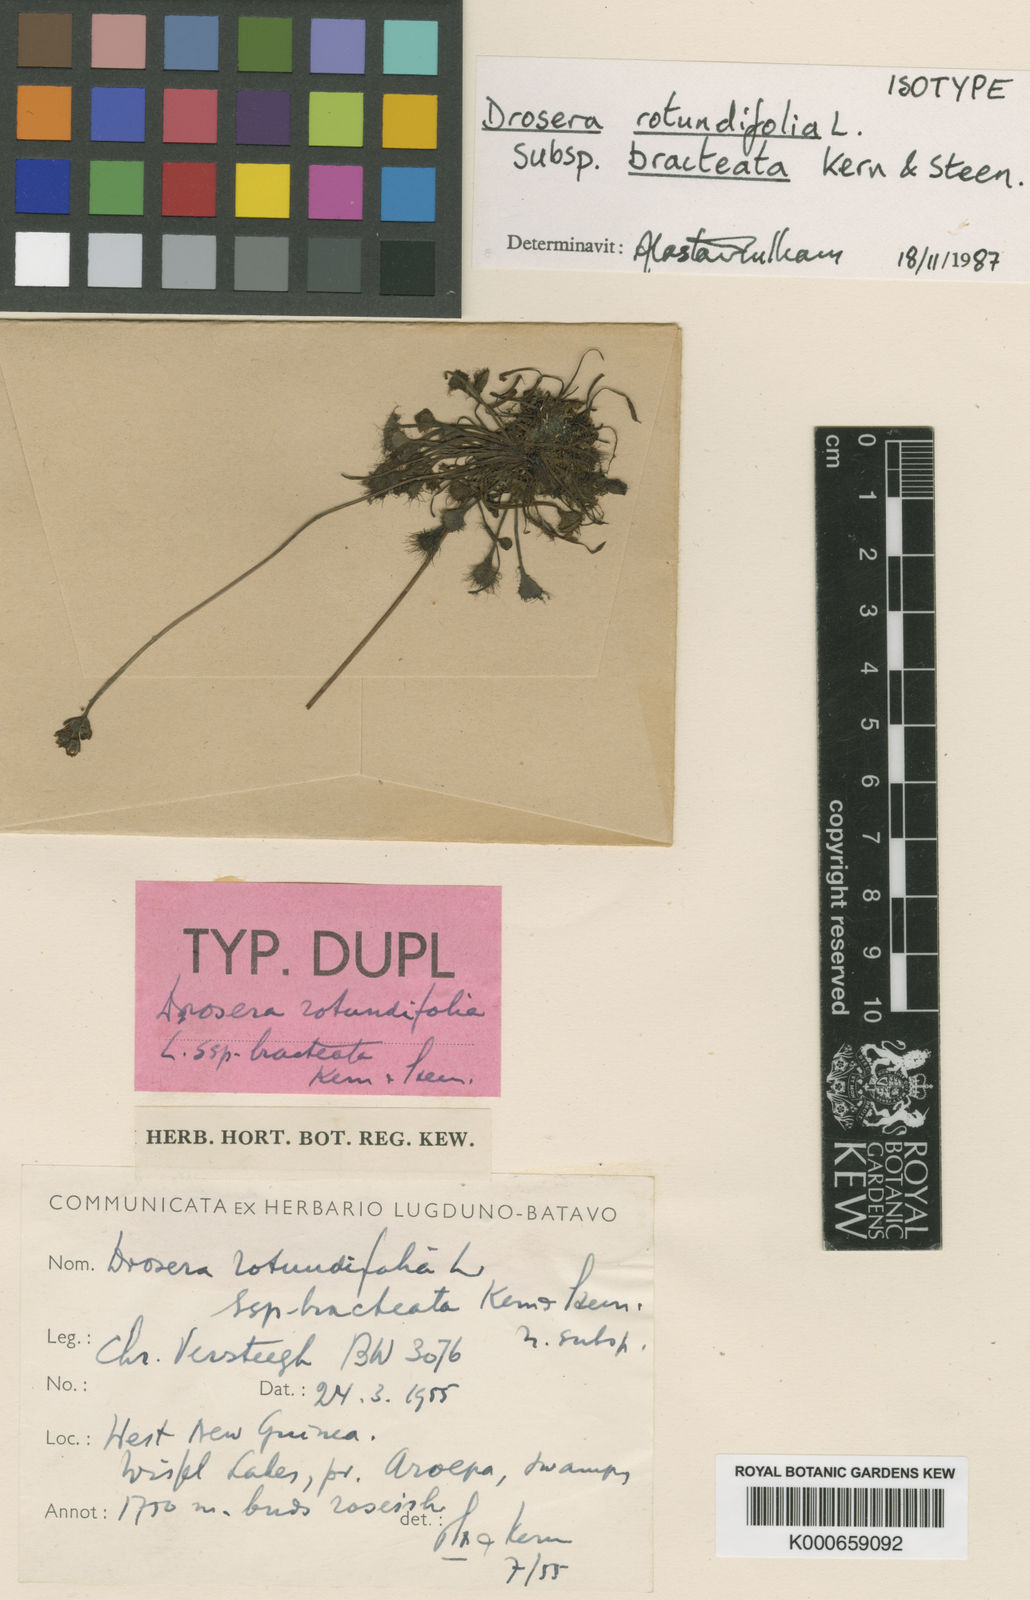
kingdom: Plantae
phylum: Tracheophyta
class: Magnoliopsida
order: Caryophyllales
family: Droseraceae
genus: Drosera
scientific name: Drosera rotundifolia
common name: Round-leaved sundew
